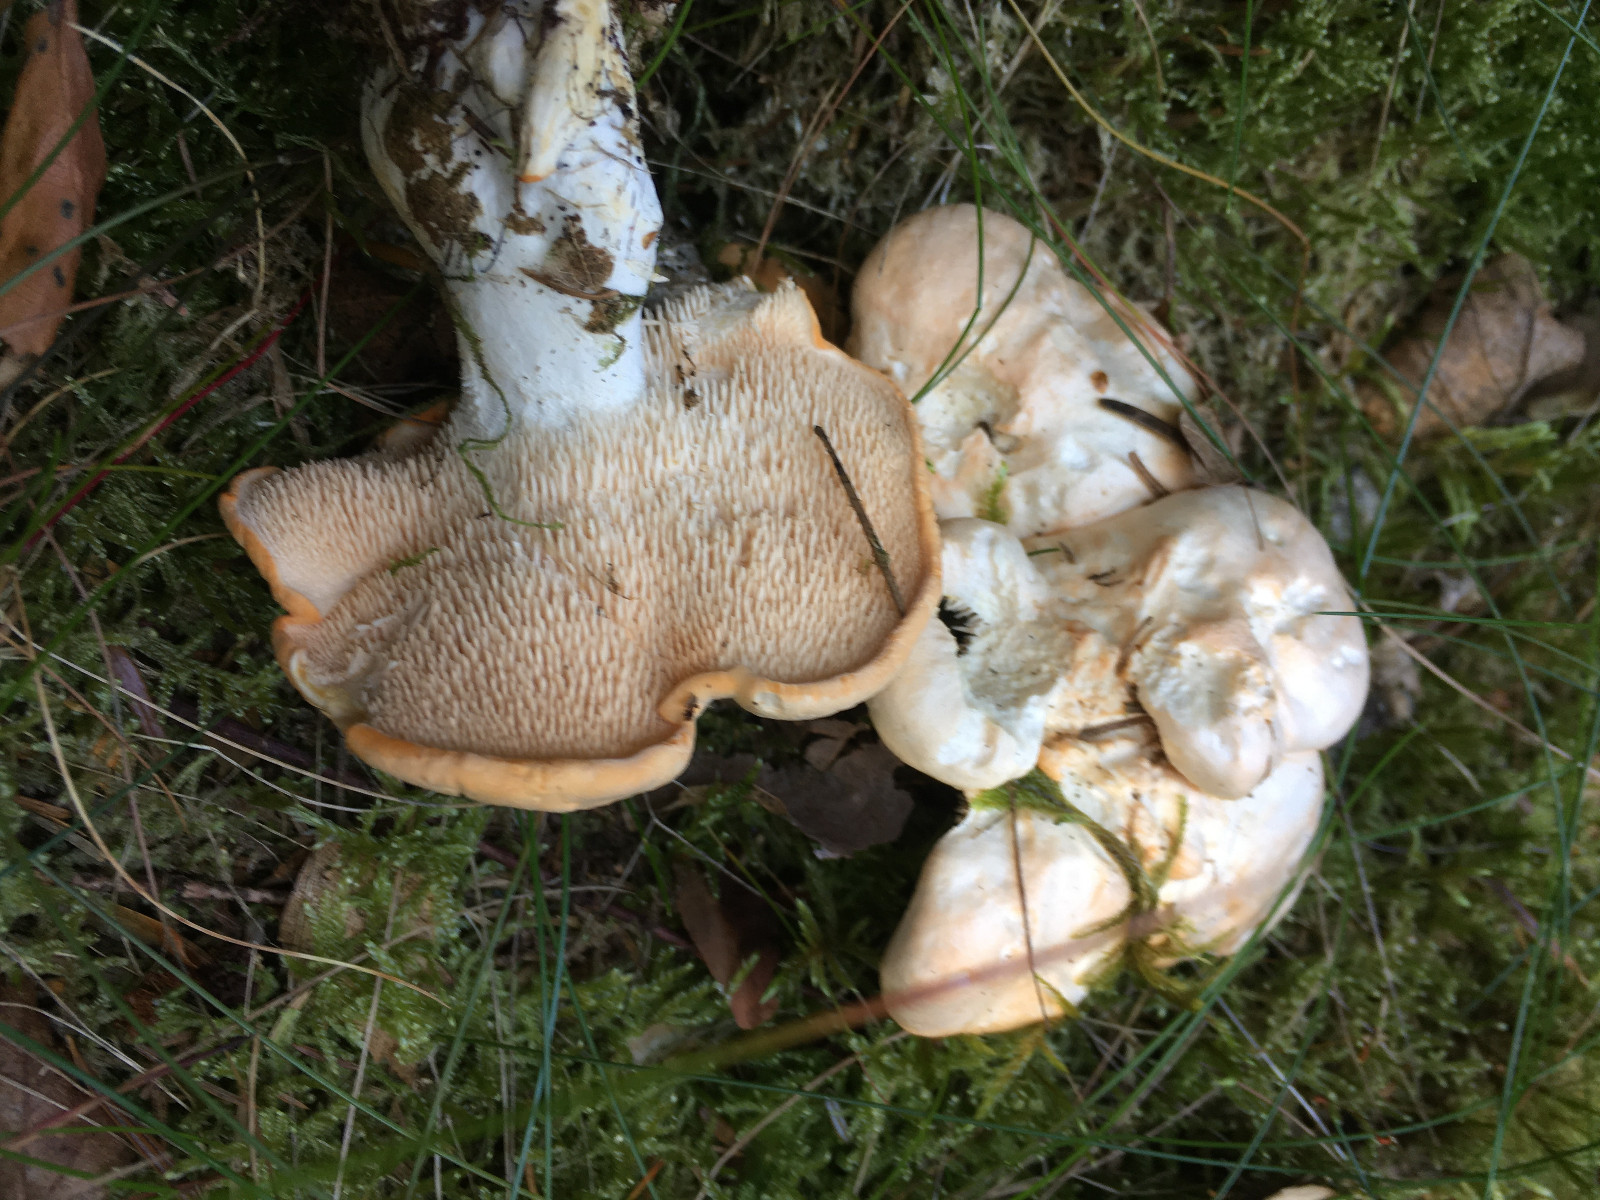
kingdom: Fungi
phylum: Basidiomycota
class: Agaricomycetes
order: Cantharellales
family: Hydnaceae
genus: Hydnum
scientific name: Hydnum repandum
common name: almindelig pigsvamp
